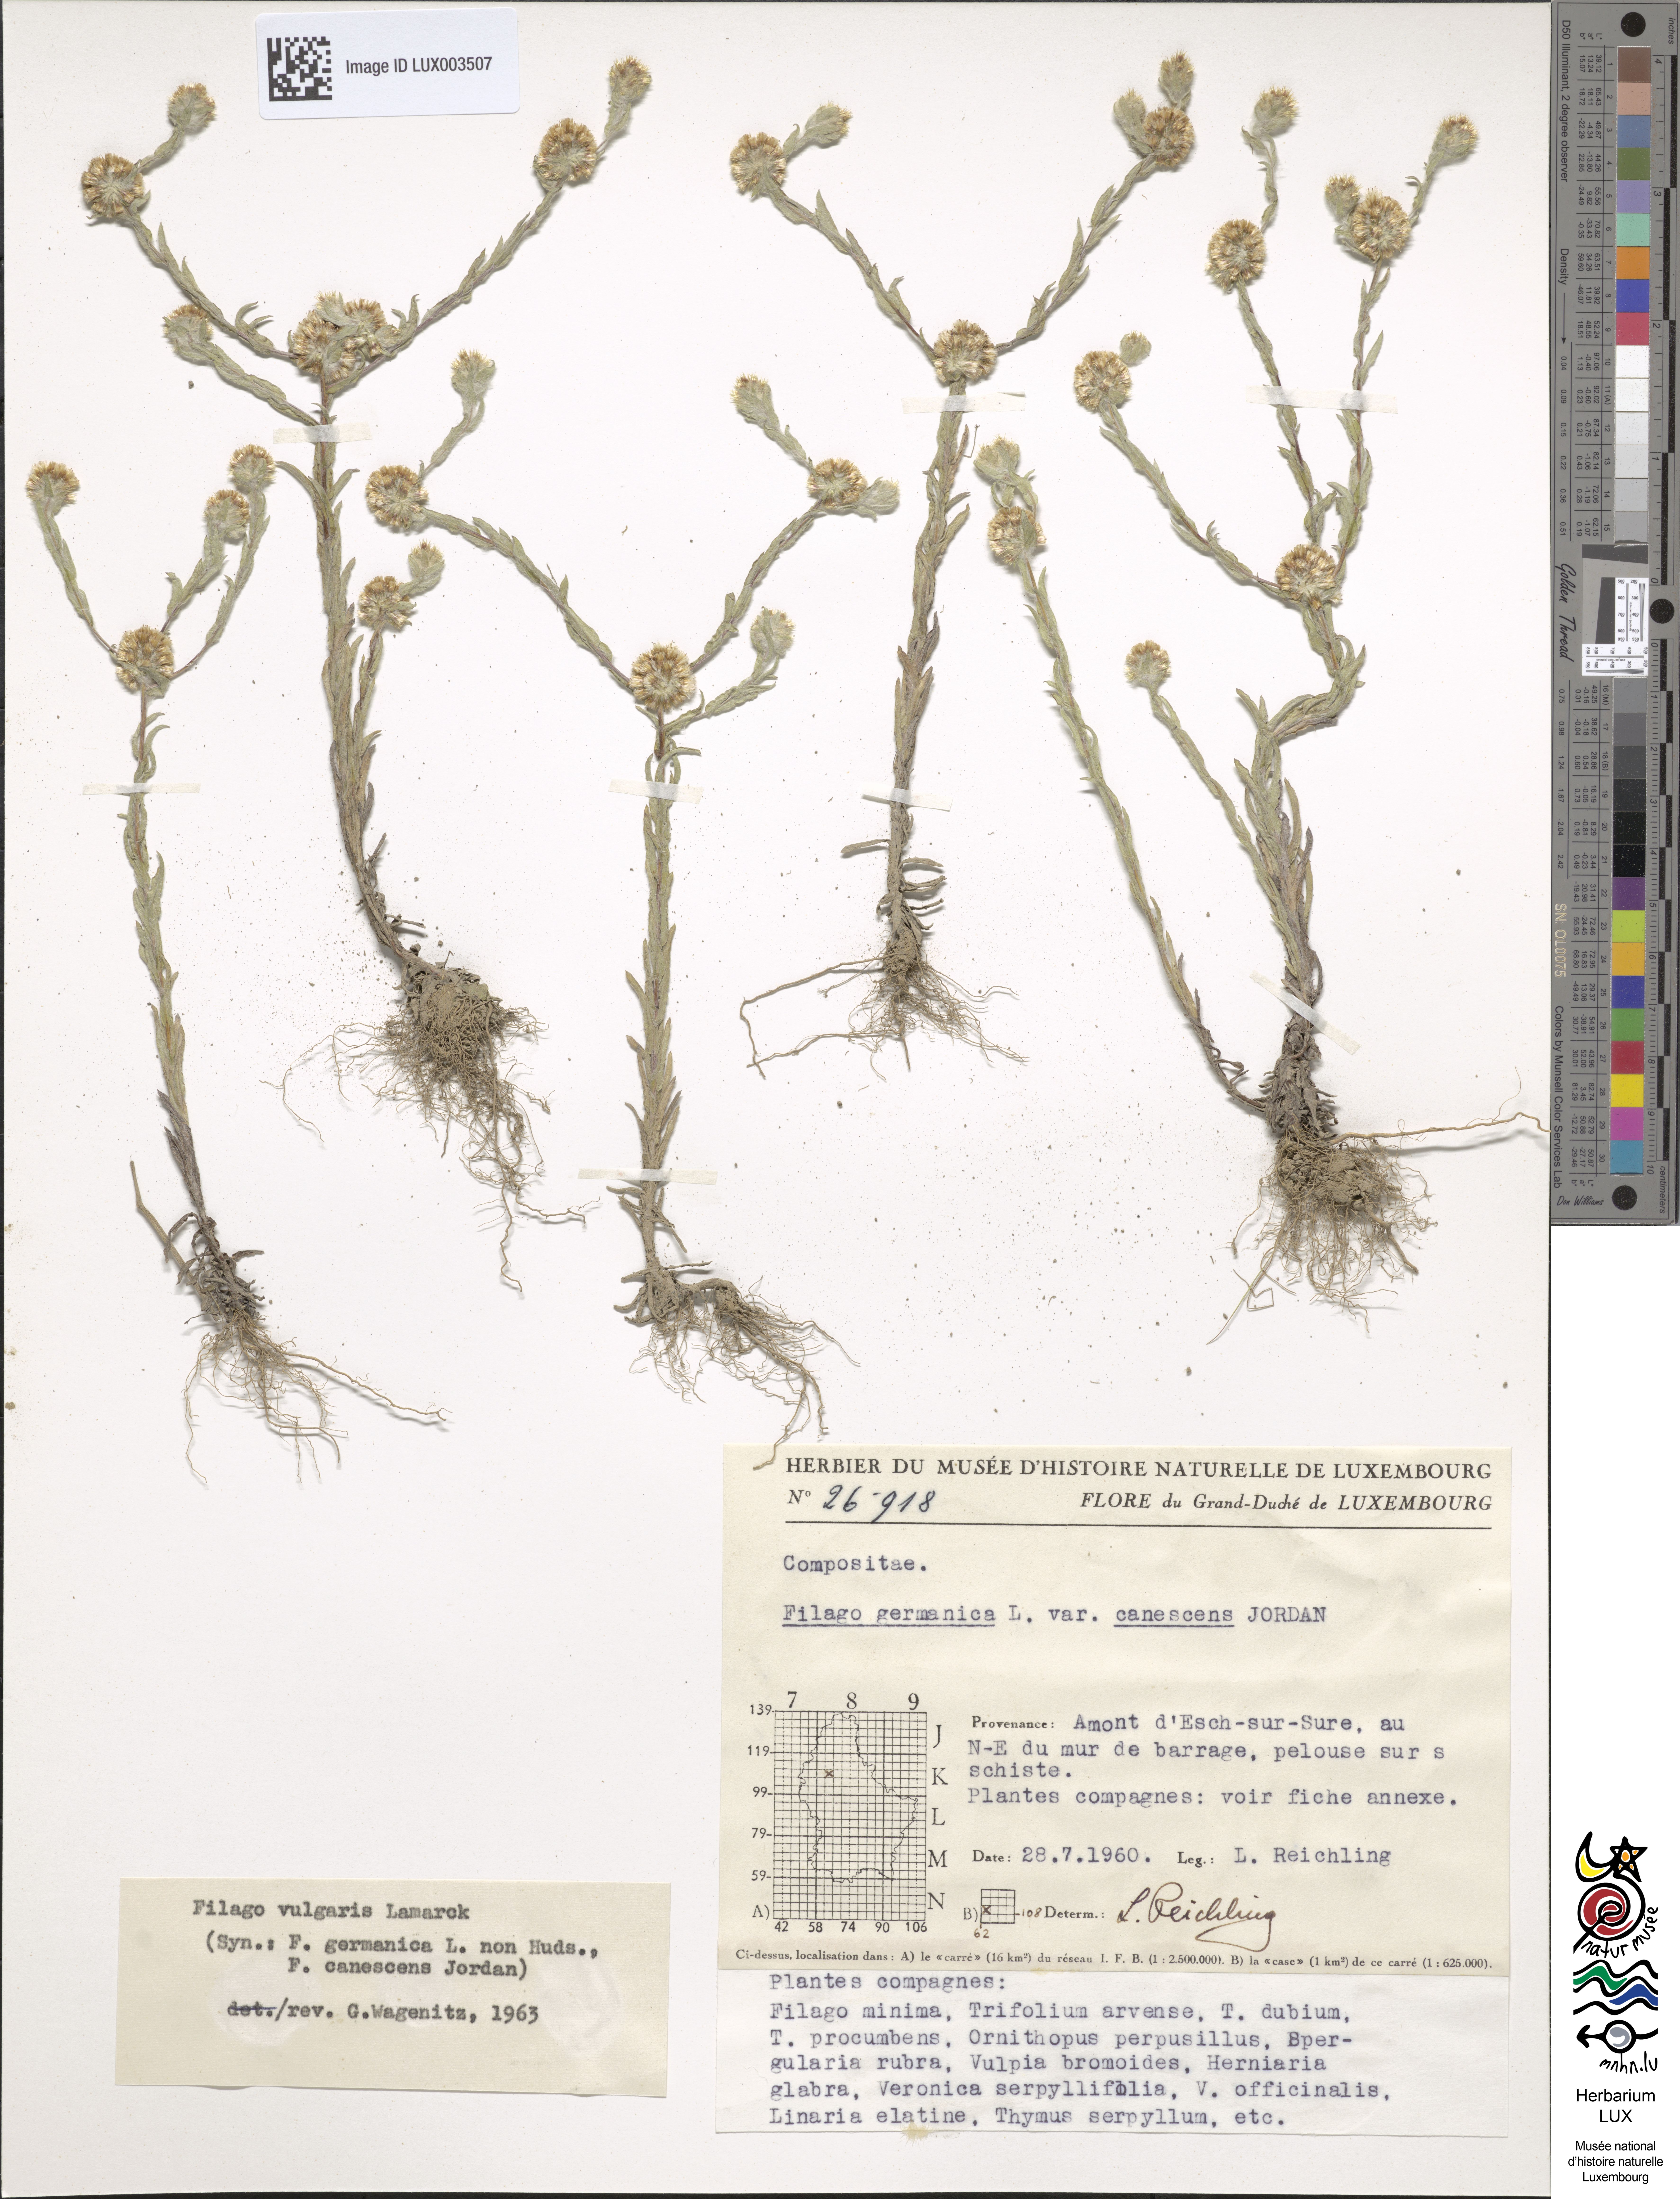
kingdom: Plantae
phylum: Tracheophyta
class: Magnoliopsida
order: Asterales
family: Asteraceae
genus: Filago
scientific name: Filago germanica
